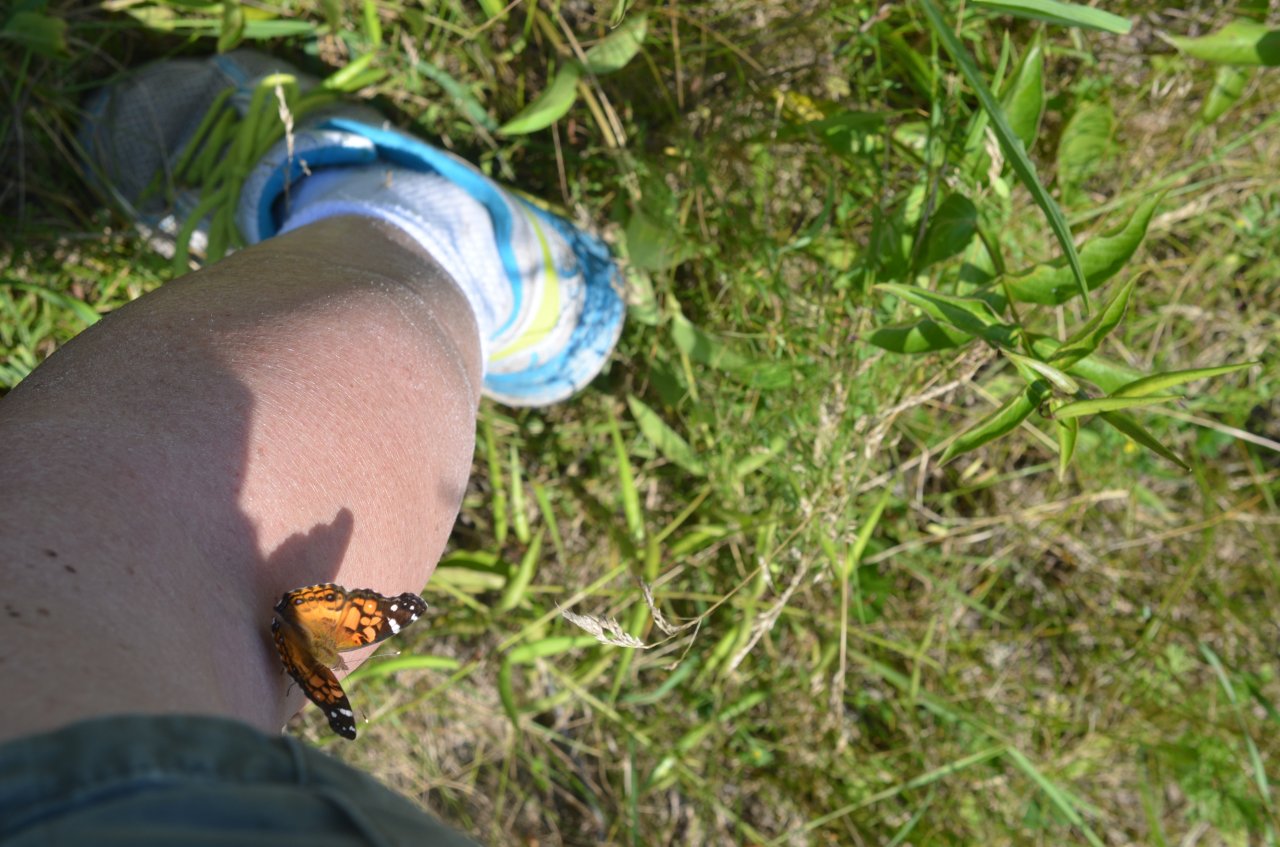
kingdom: Animalia
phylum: Arthropoda
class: Insecta
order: Lepidoptera
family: Nymphalidae
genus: Vanessa
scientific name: Vanessa virginiensis
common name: American Lady
